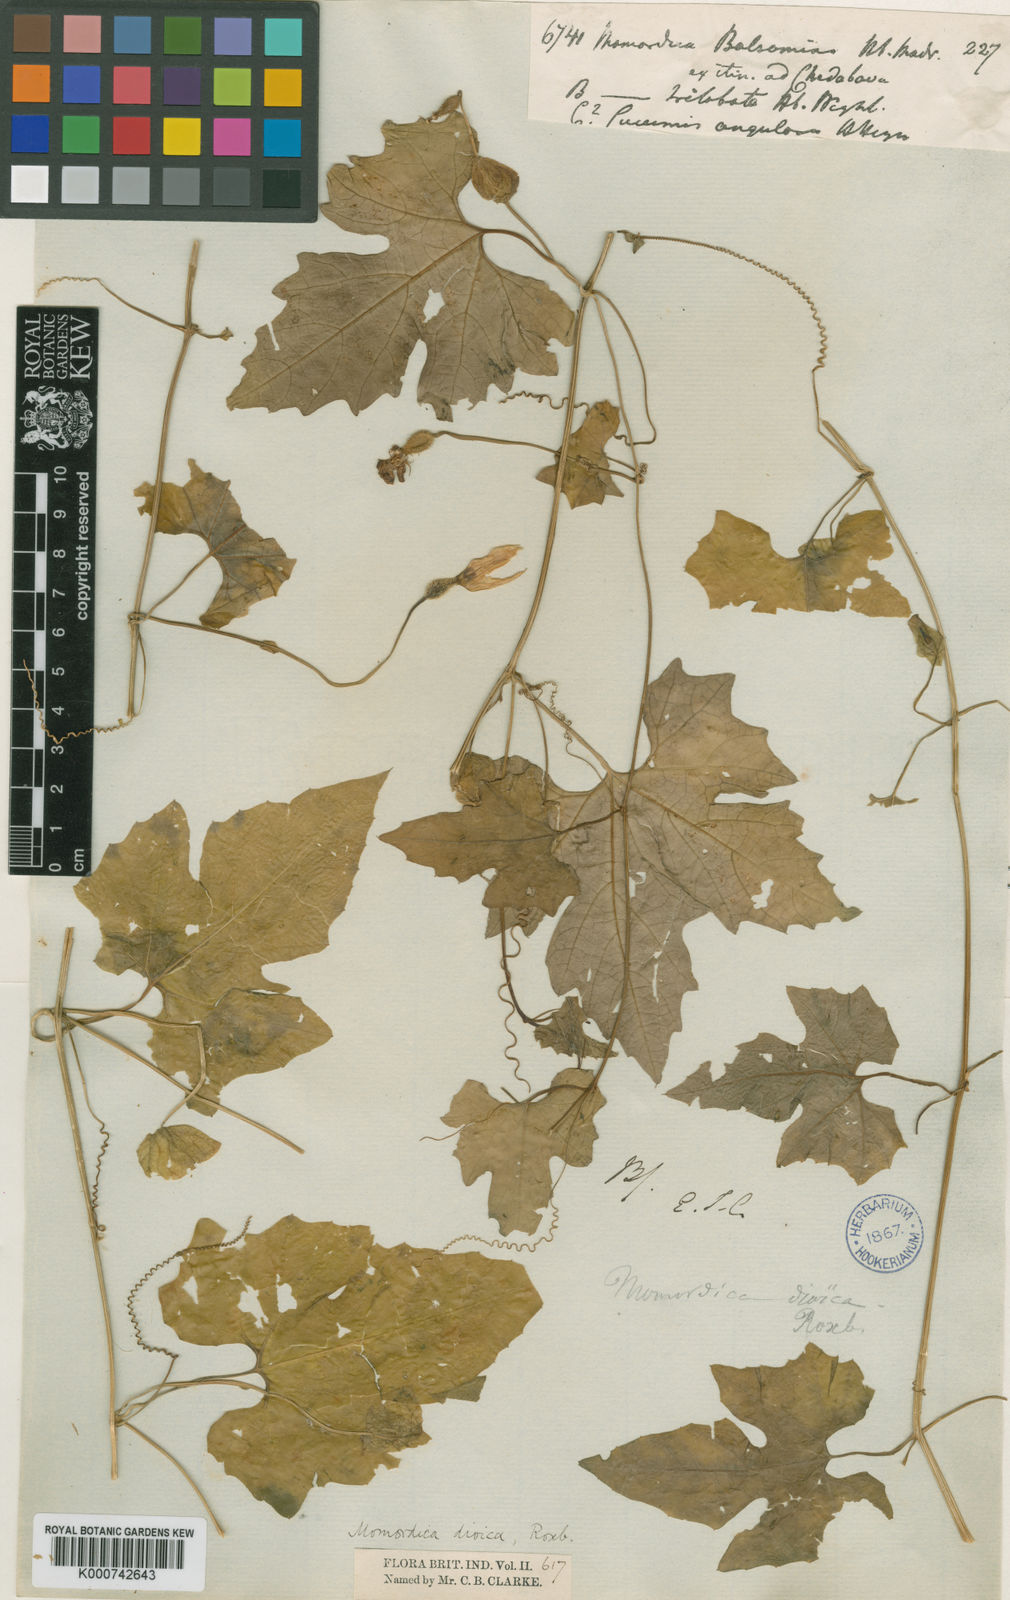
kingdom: Plantae
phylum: Tracheophyta
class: Magnoliopsida
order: Cucurbitales
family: Cucurbitaceae
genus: Momordica
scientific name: Momordica dioica
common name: Spine gourd
